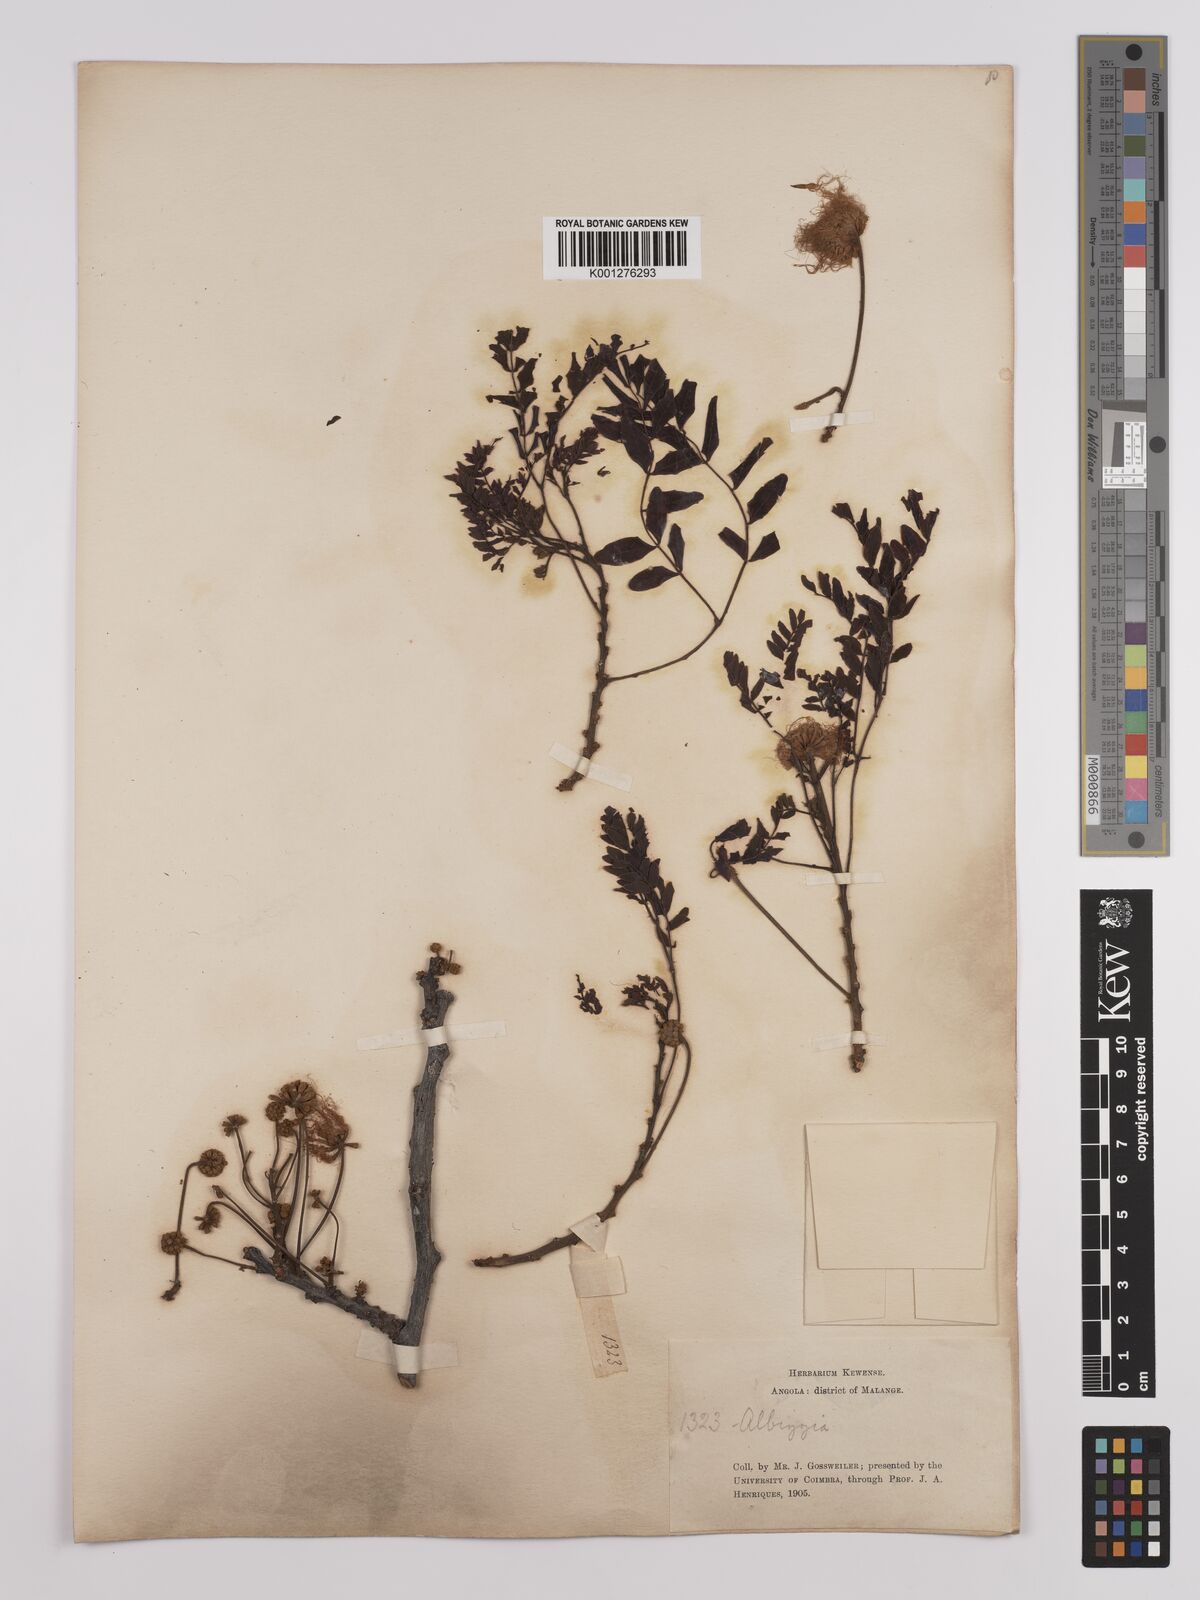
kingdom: Plantae
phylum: Tracheophyta
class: Magnoliopsida
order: Fabales
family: Fabaceae
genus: Albizia
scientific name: Albizia antunesiana
